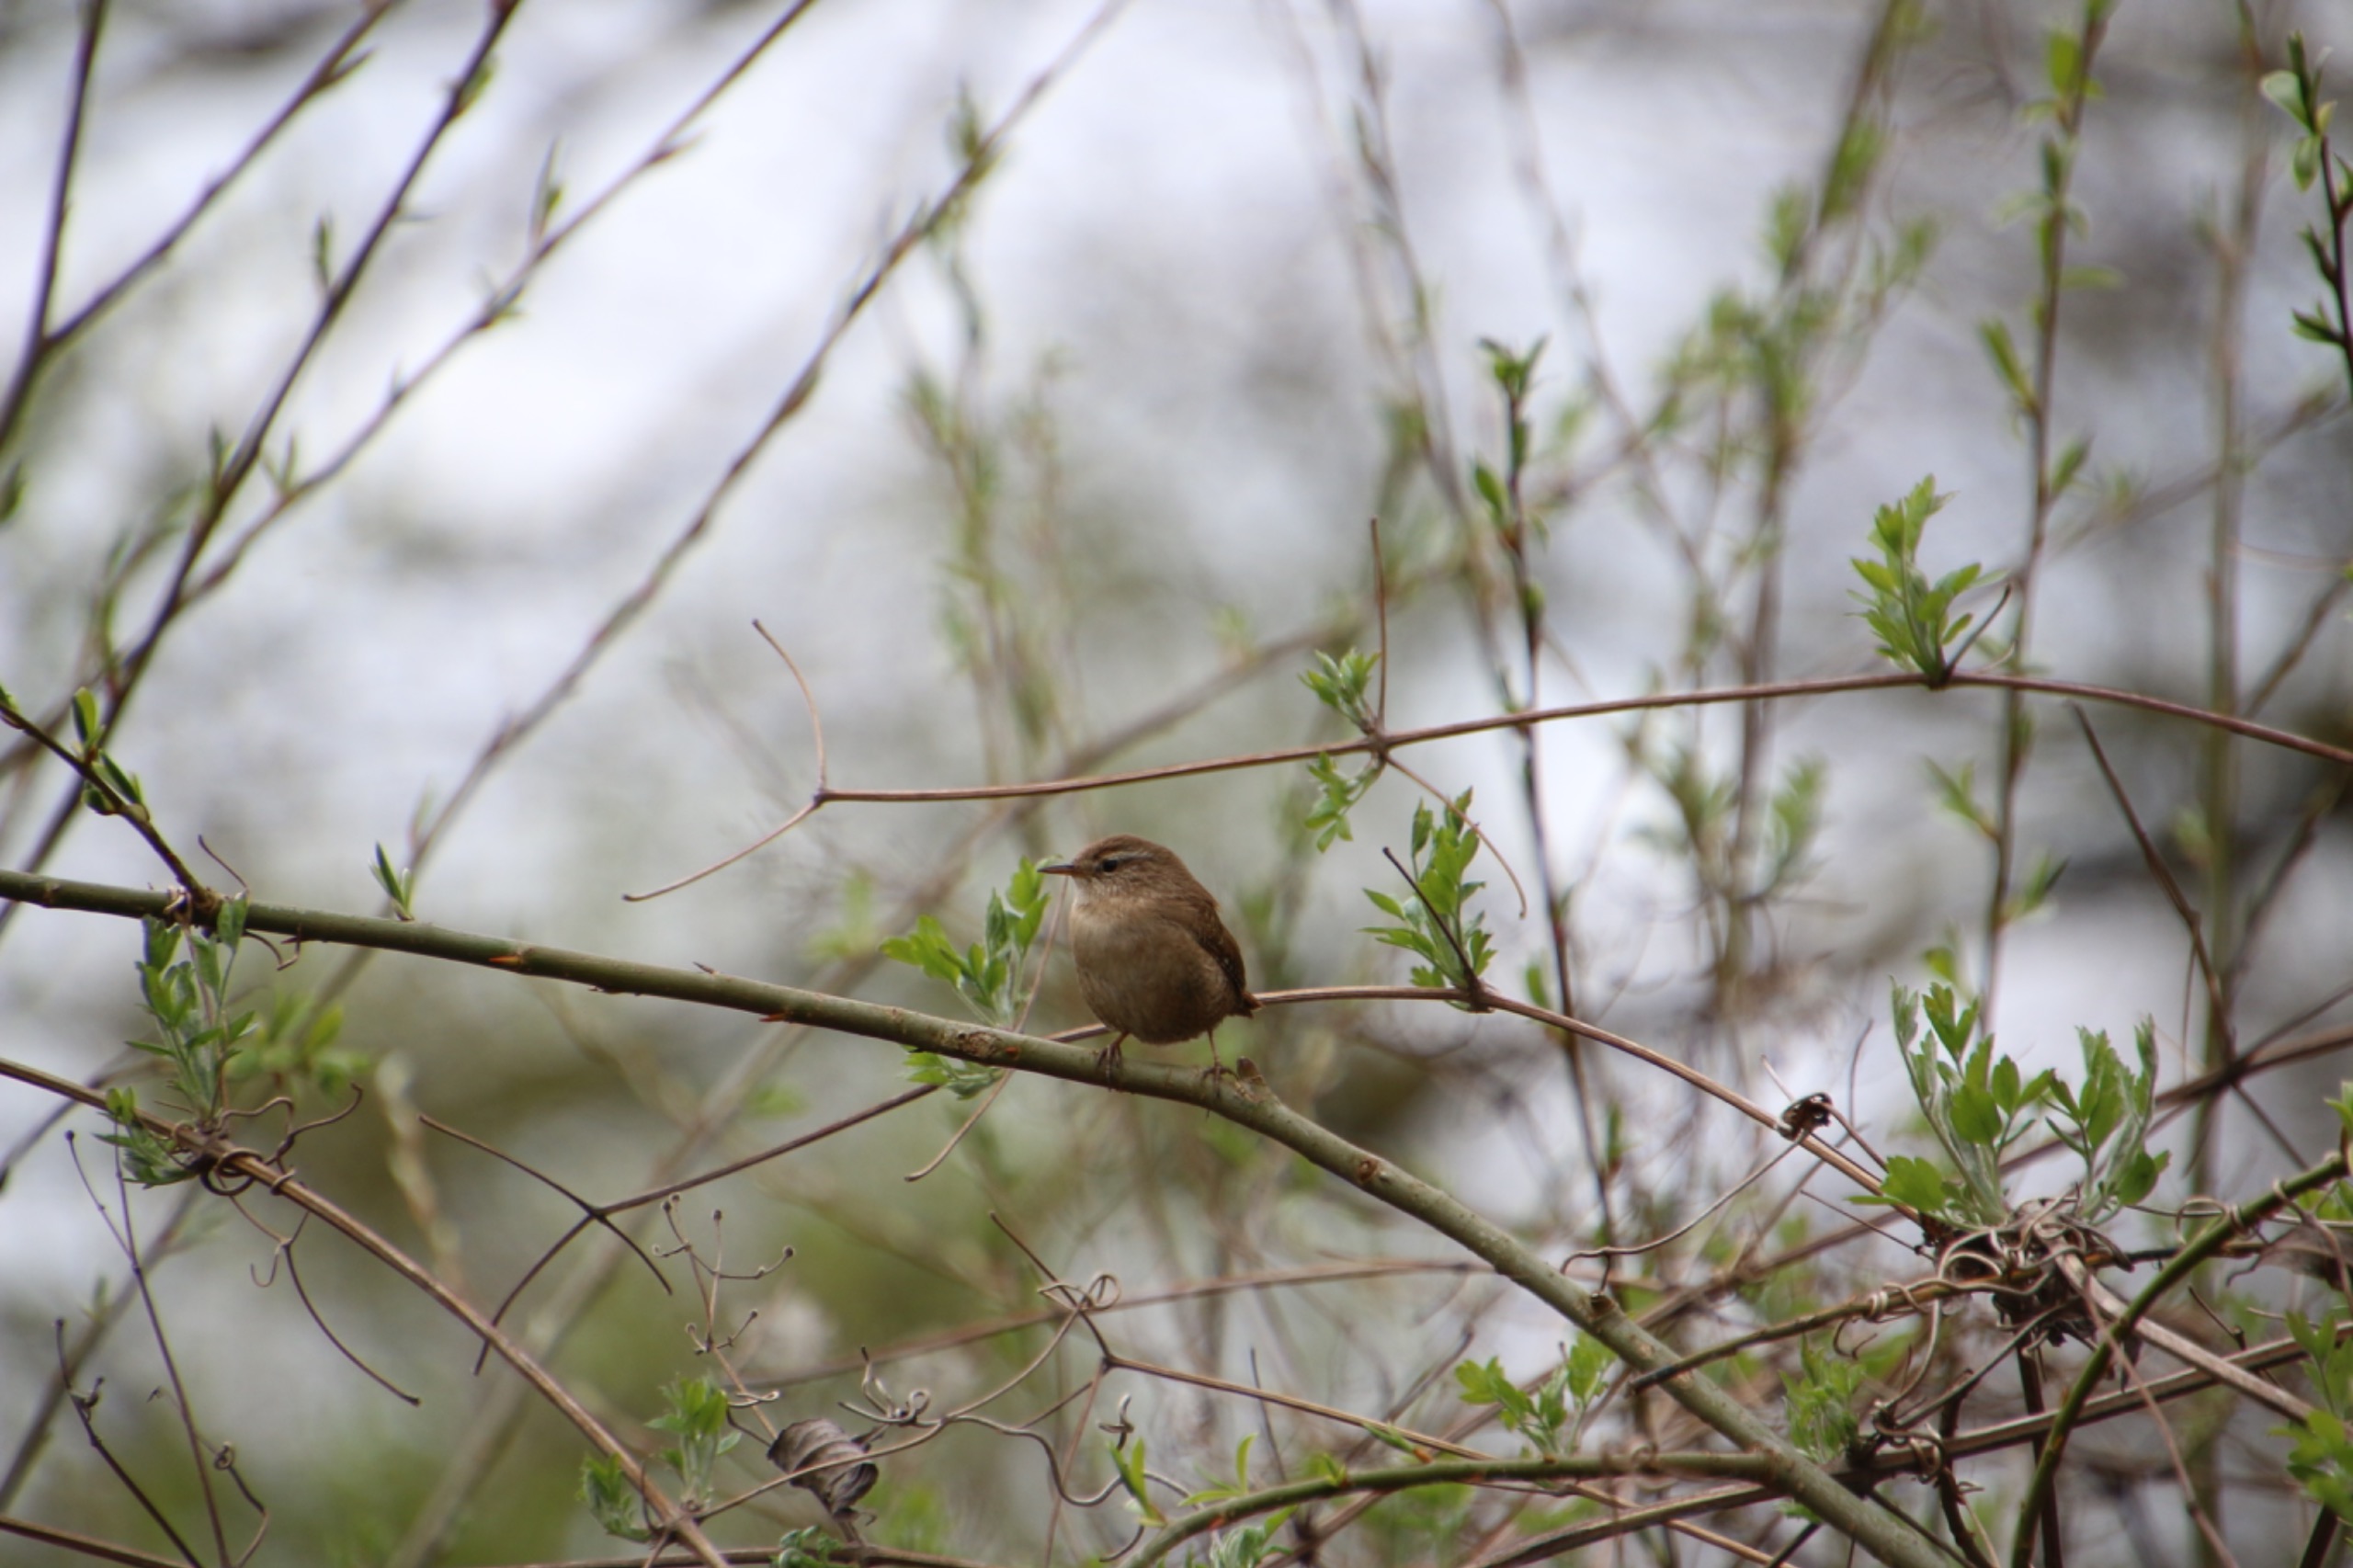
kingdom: Animalia
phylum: Chordata
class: Aves
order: Passeriformes
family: Troglodytidae
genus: Troglodytes
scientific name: Troglodytes troglodytes
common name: Gærdesmutte
